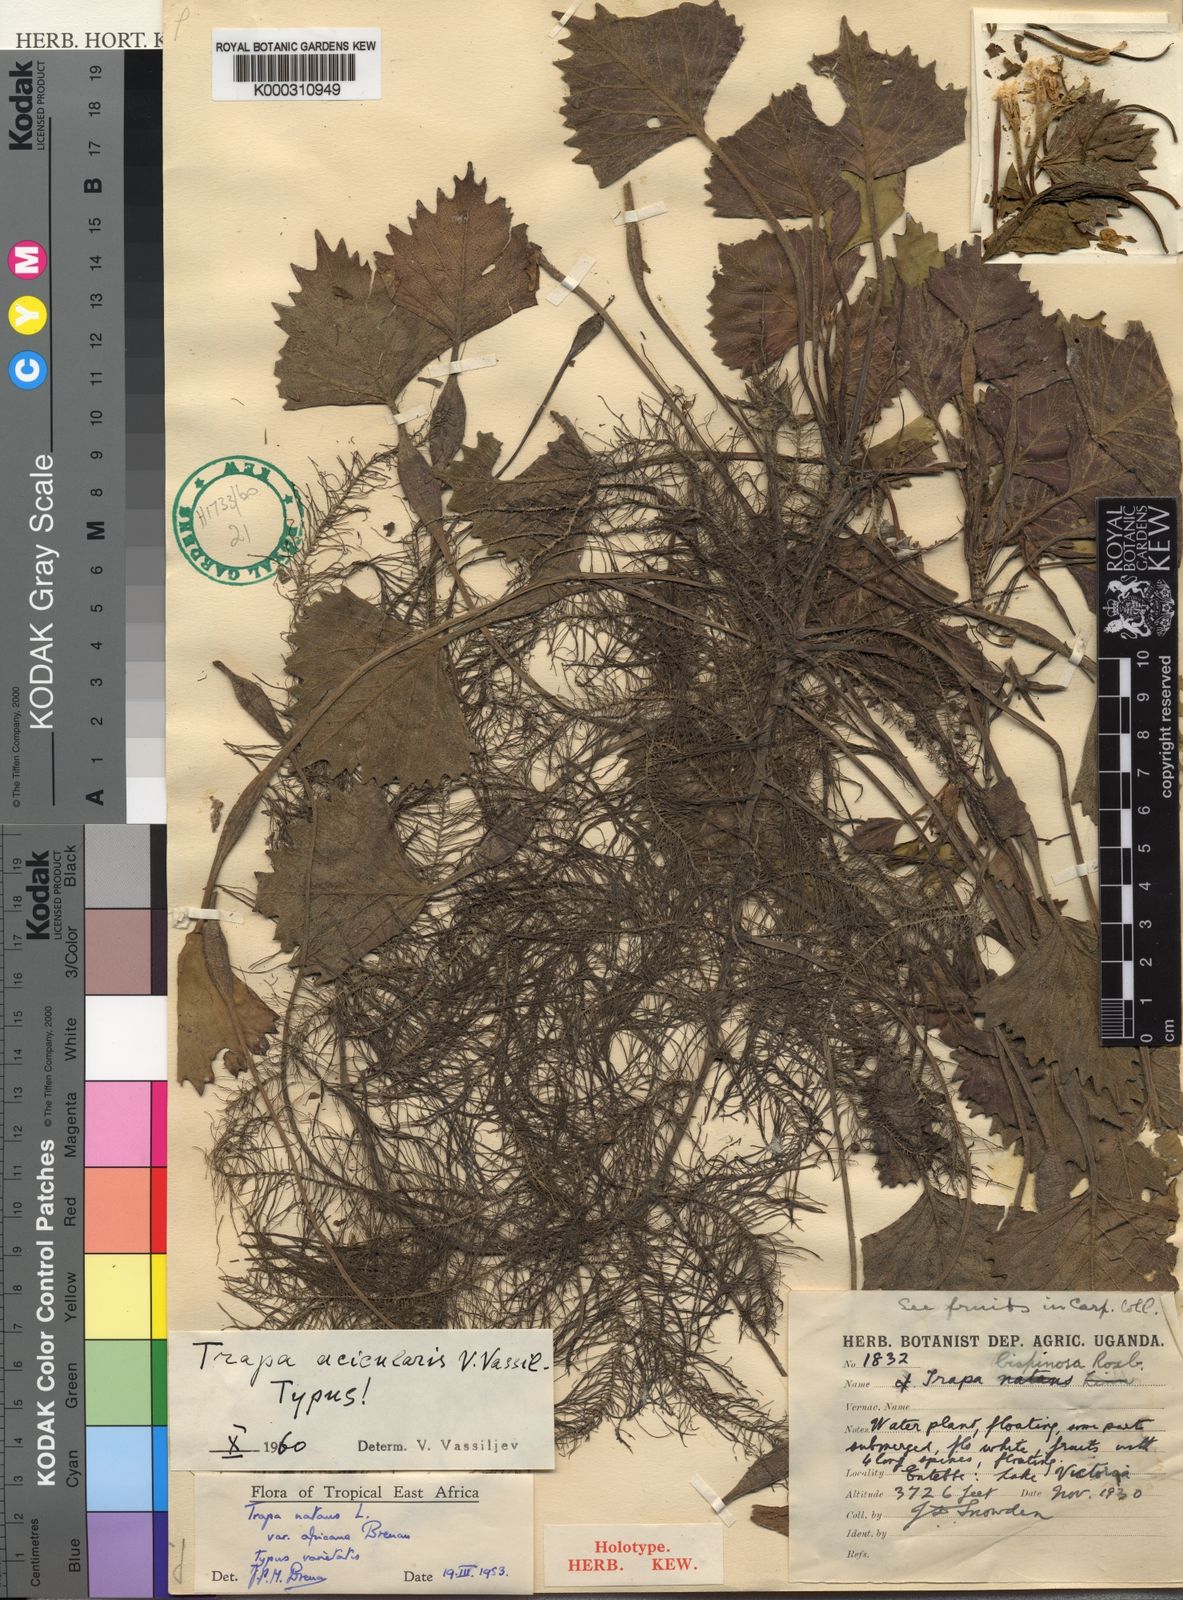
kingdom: Plantae
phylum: Tracheophyta
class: Magnoliopsida
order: Myrtales
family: Lythraceae
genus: Trapa
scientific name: Trapa
